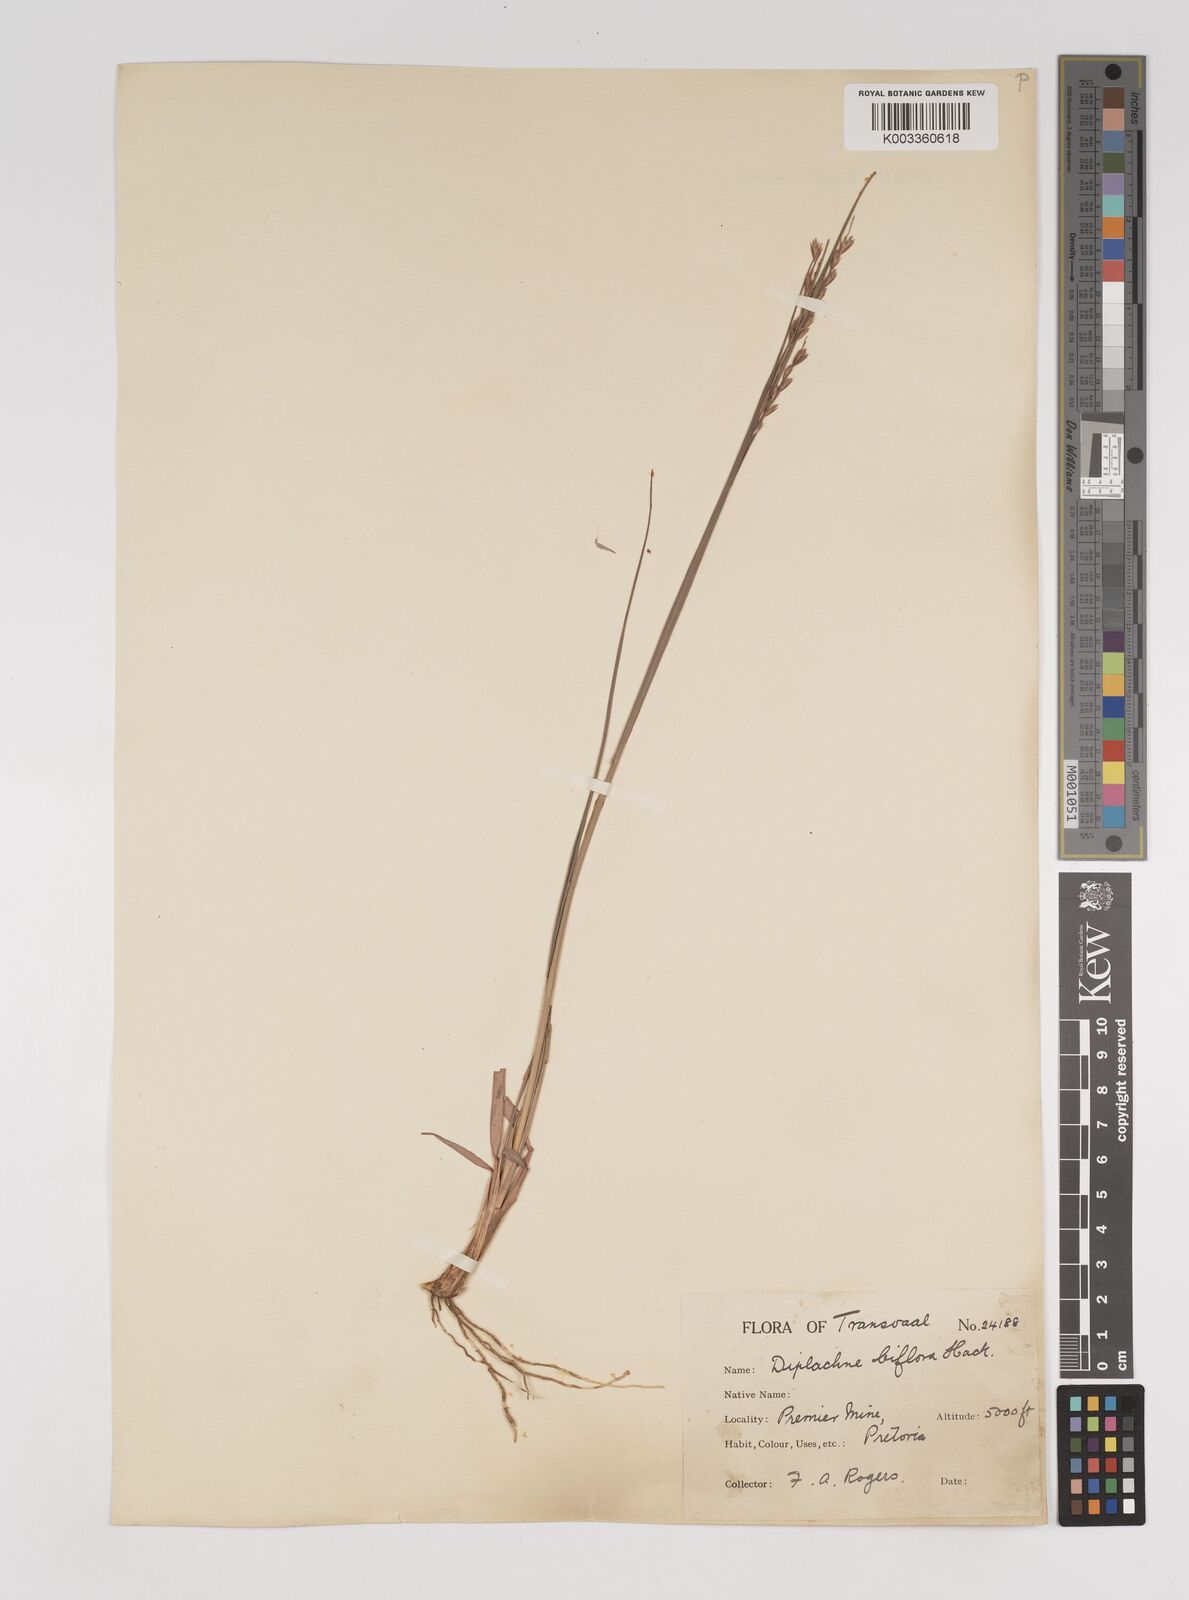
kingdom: Plantae
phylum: Tracheophyta
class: Liliopsida
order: Poales
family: Poaceae
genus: Bewsia
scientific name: Bewsia biflora
